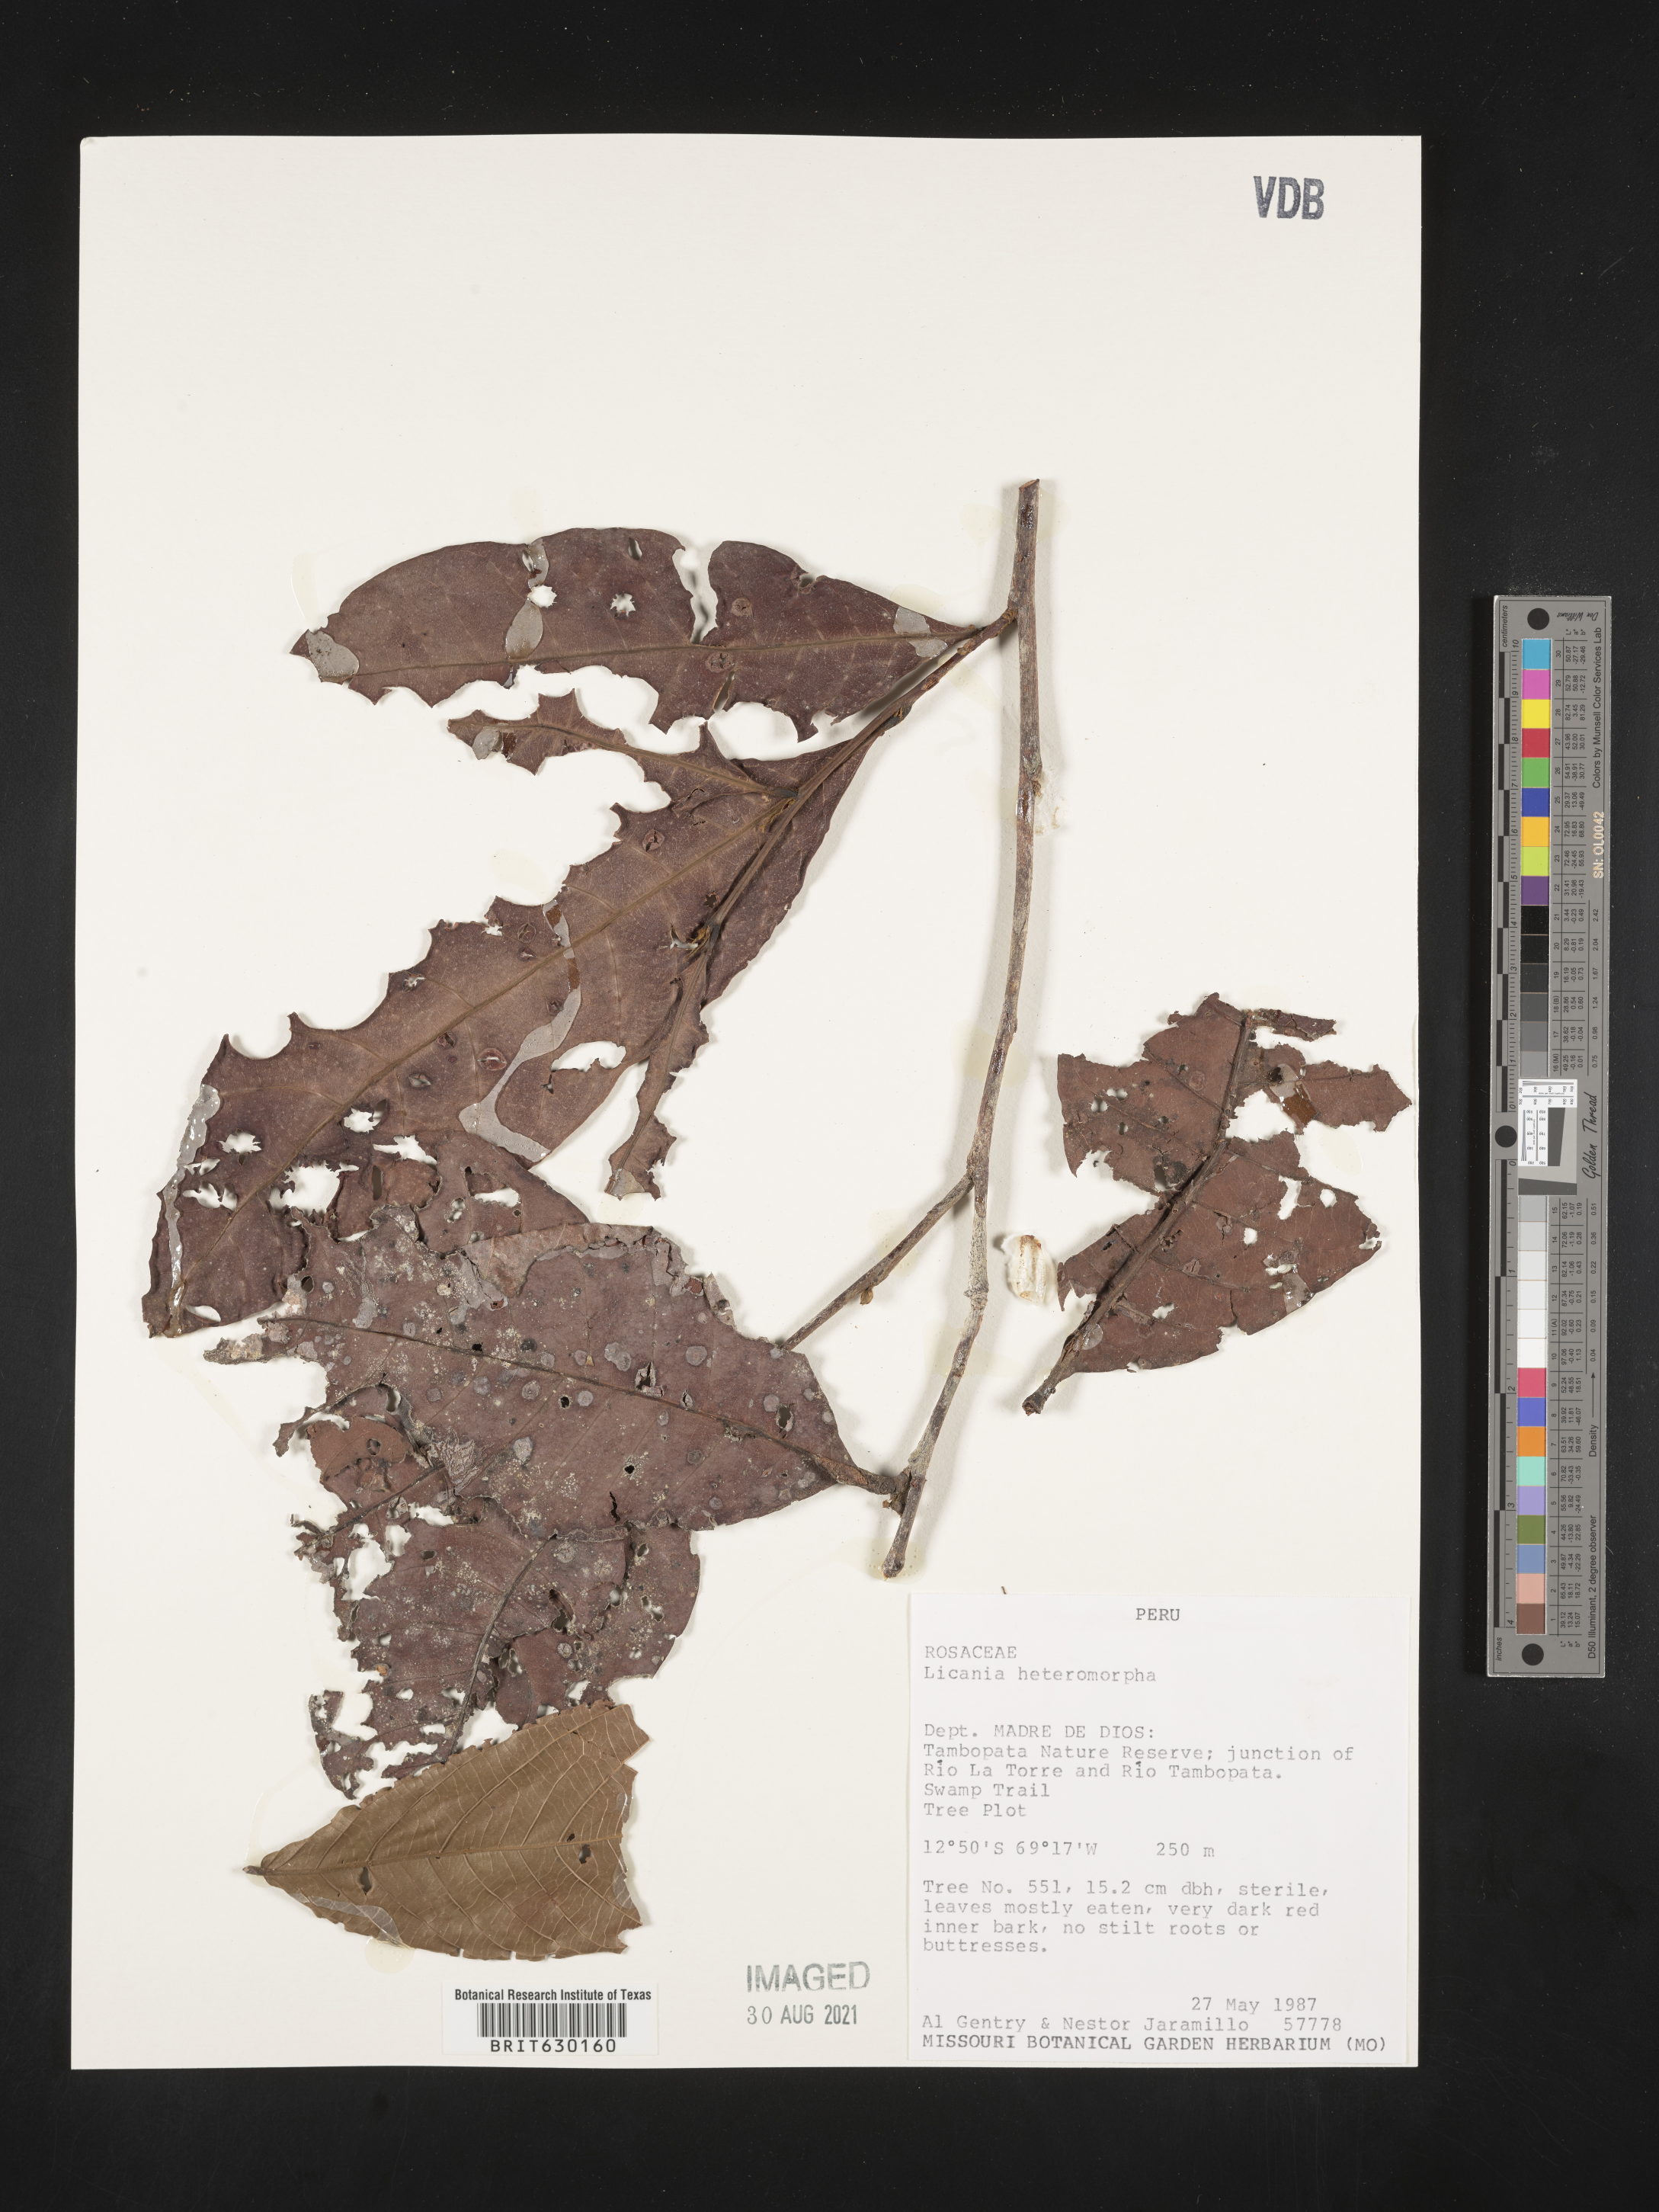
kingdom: Plantae
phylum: Tracheophyta
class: Magnoliopsida
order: Malpighiales
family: Chrysobalanaceae
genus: Hymenopus
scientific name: Hymenopus heteromorphus
